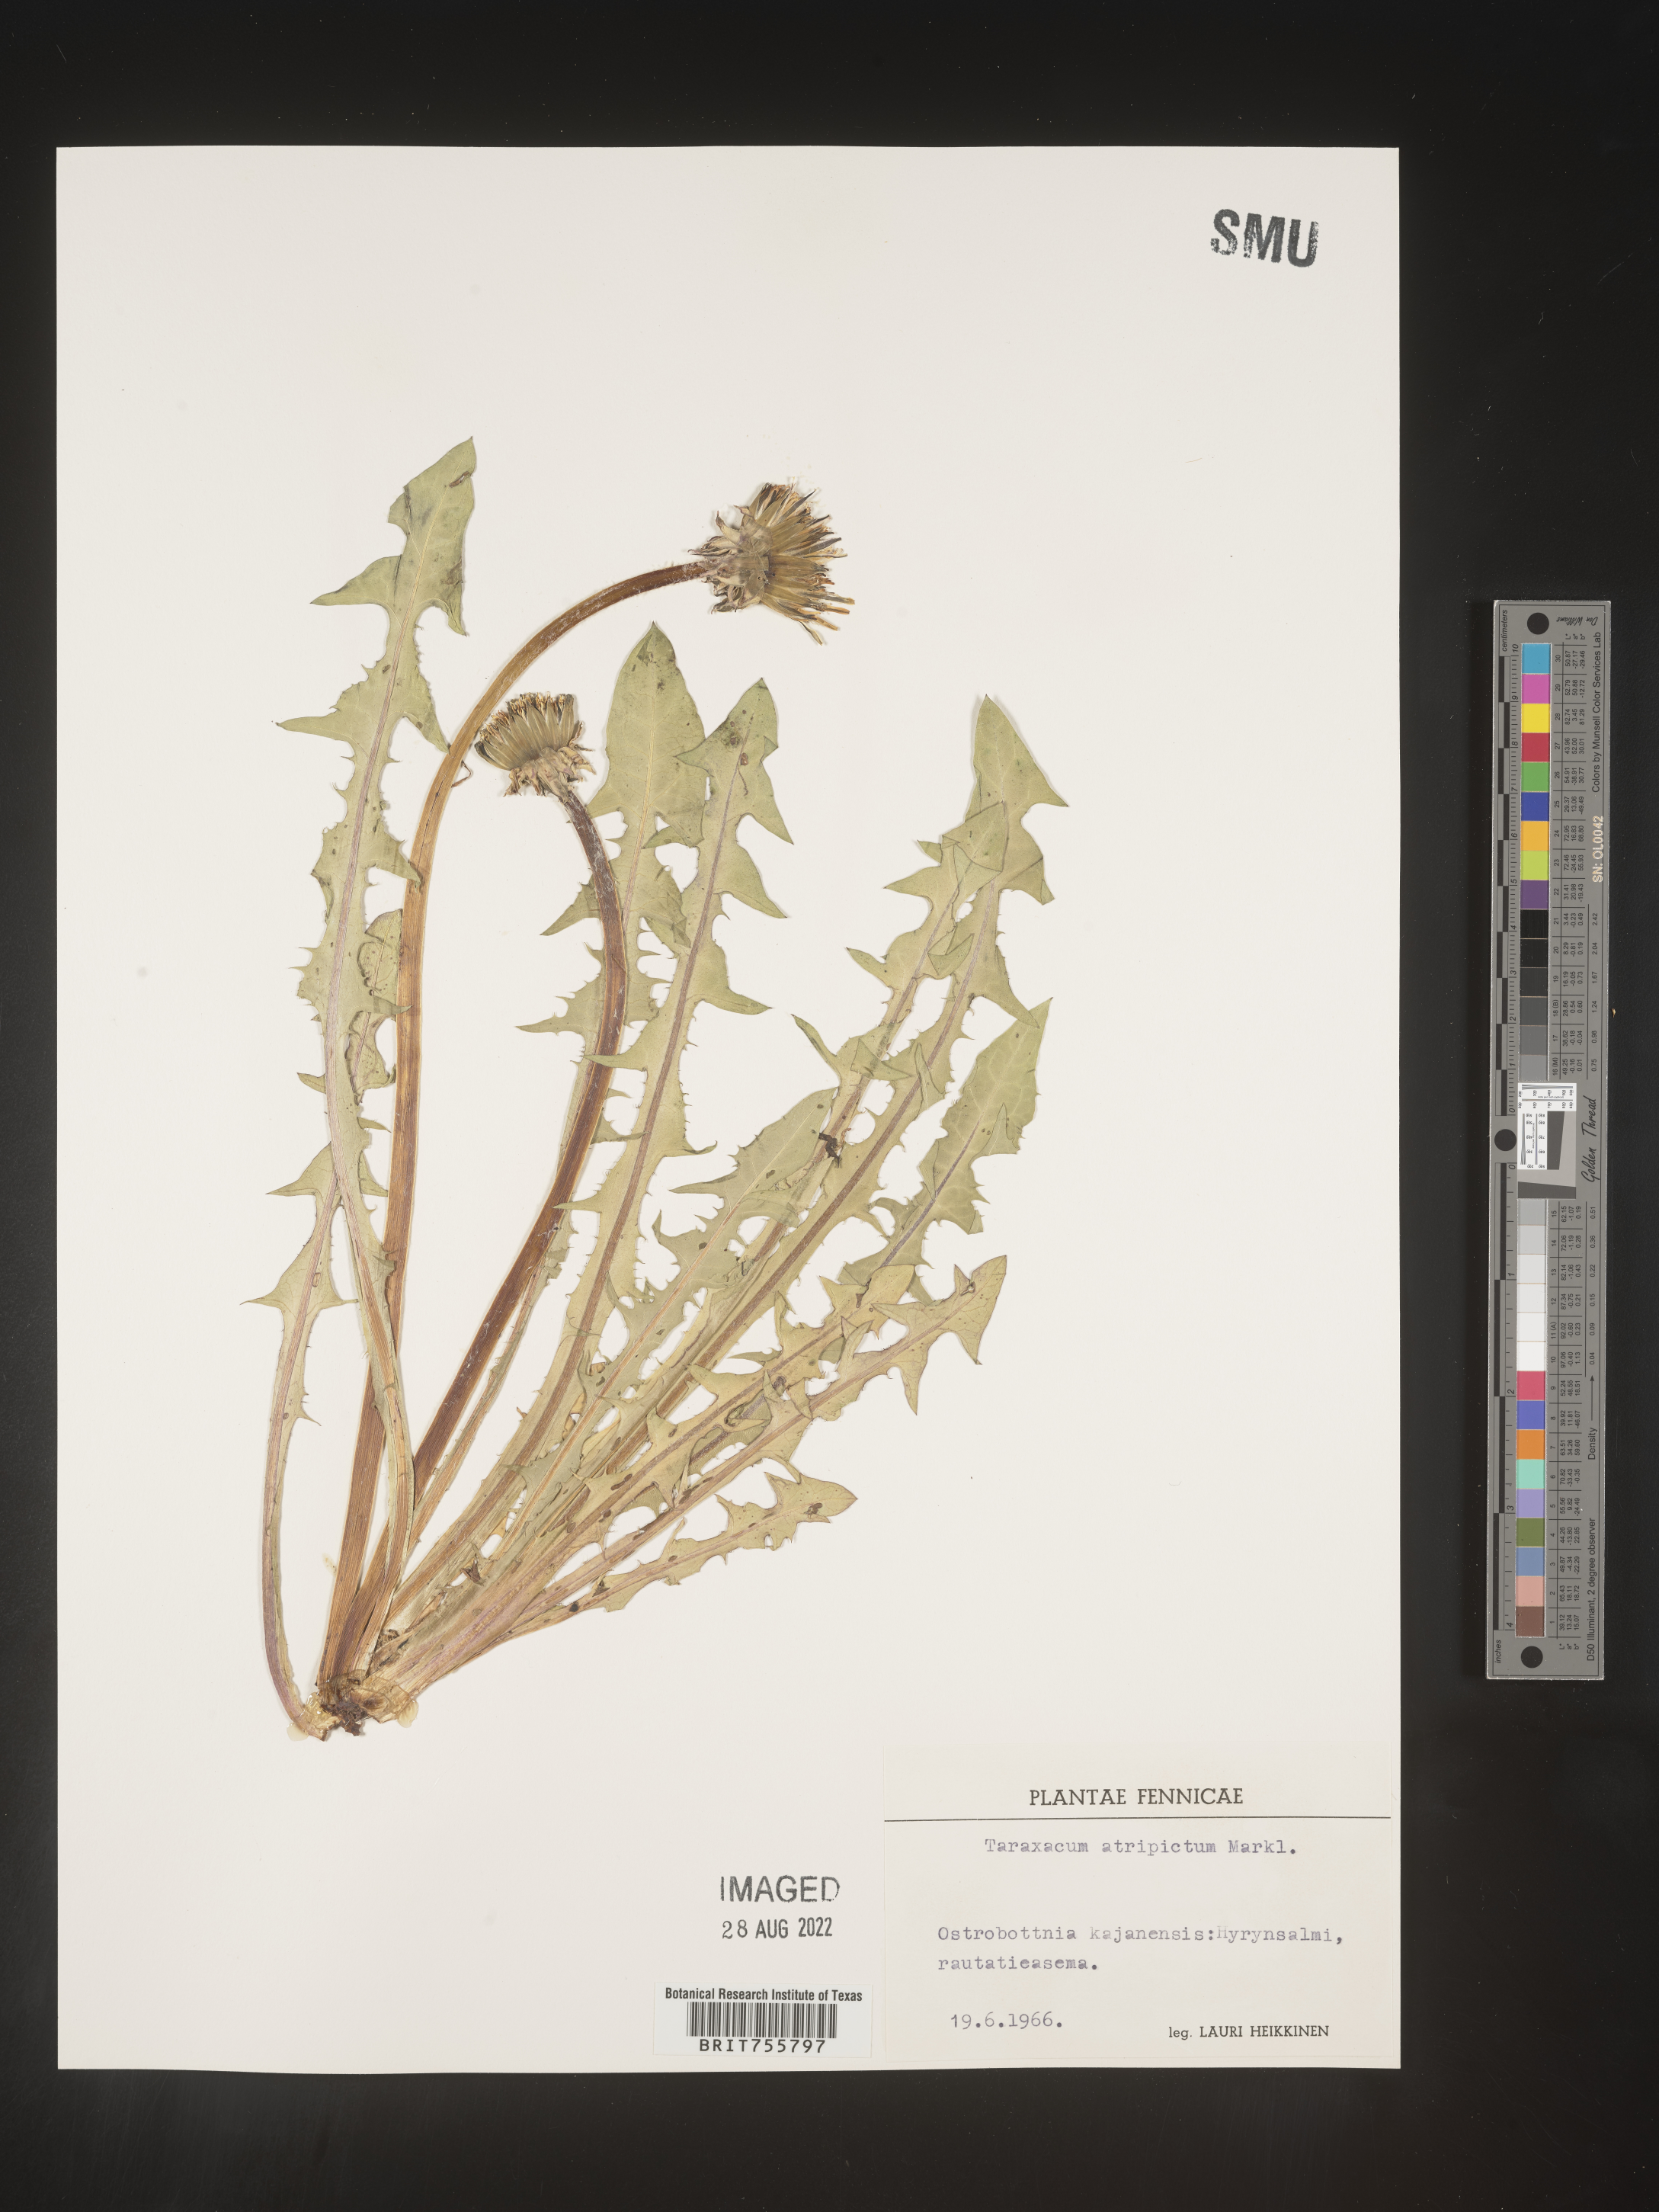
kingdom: Plantae
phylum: Tracheophyta
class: Magnoliopsida
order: Asterales
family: Asteraceae
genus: Taraxacum
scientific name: Taraxacum
